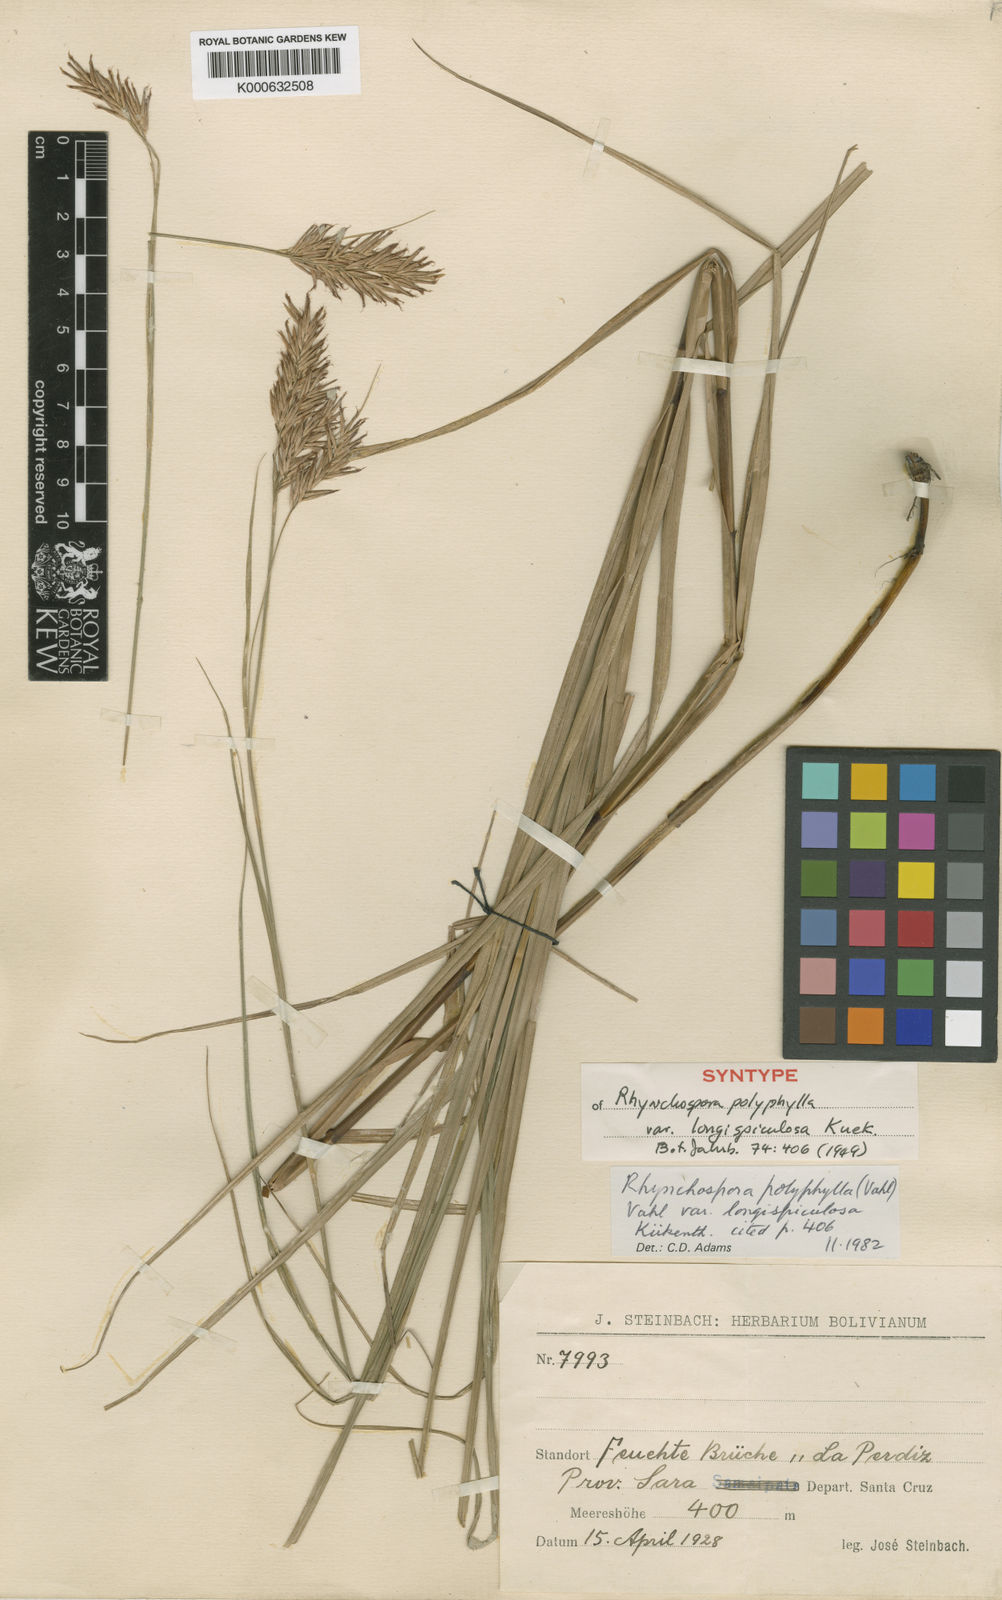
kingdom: Plantae
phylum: Tracheophyta
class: Liliopsida
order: Poales
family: Cyperaceae
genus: Rhynchospora
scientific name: Rhynchospora polyphylla
